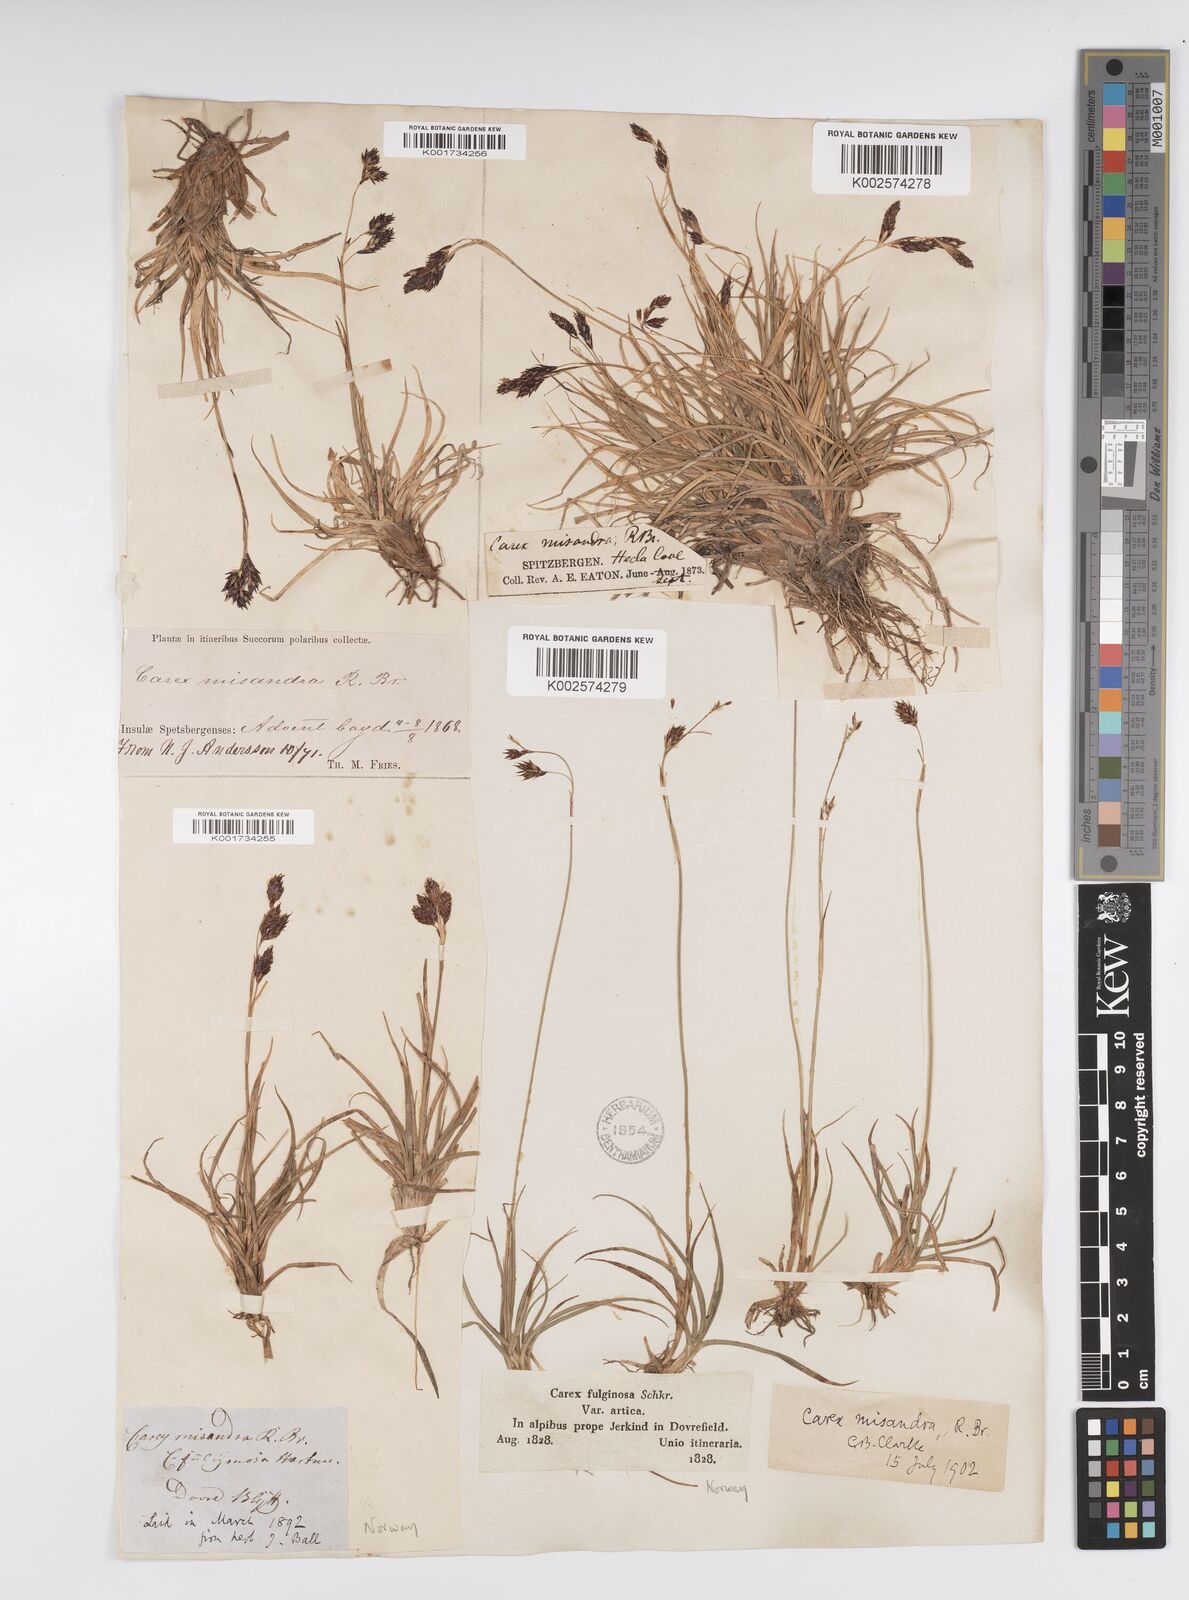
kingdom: Plantae
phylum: Tracheophyta
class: Liliopsida
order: Poales
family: Cyperaceae
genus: Carex
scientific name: Carex fuliginosa
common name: Few-flowered sedge
